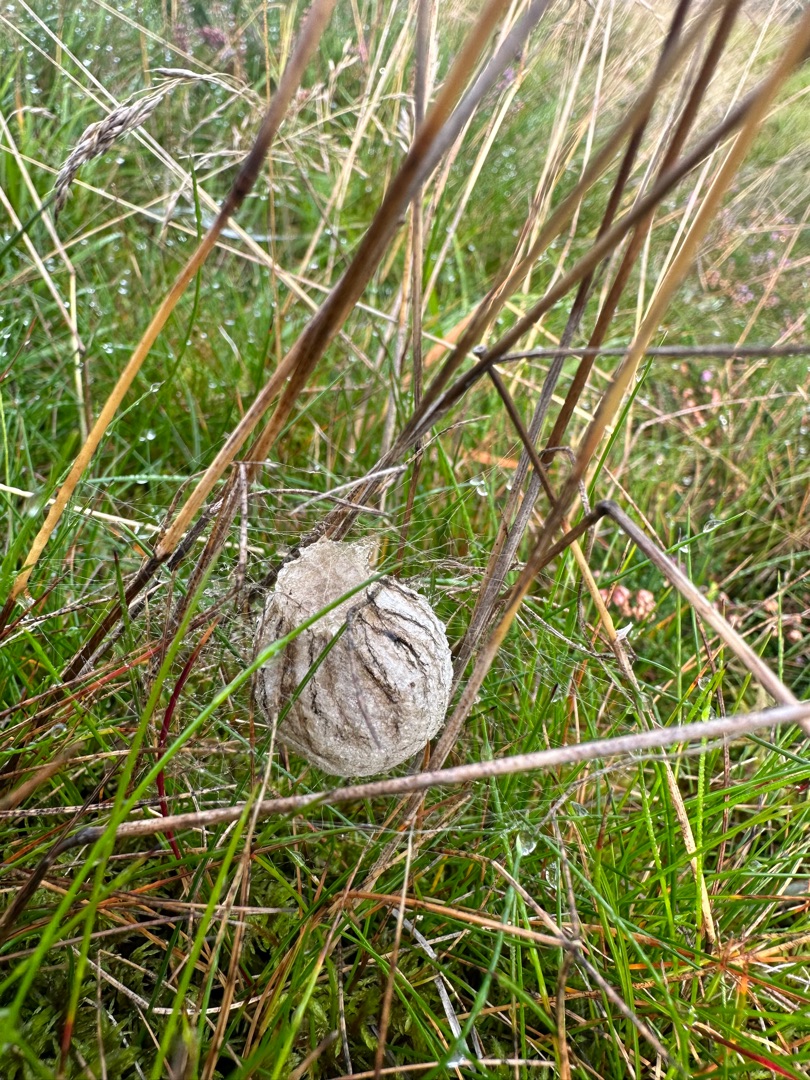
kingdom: Animalia
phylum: Arthropoda
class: Arachnida
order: Araneae
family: Araneidae
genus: Argiope
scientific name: Argiope bruennichi
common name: Hvepseedderkop
